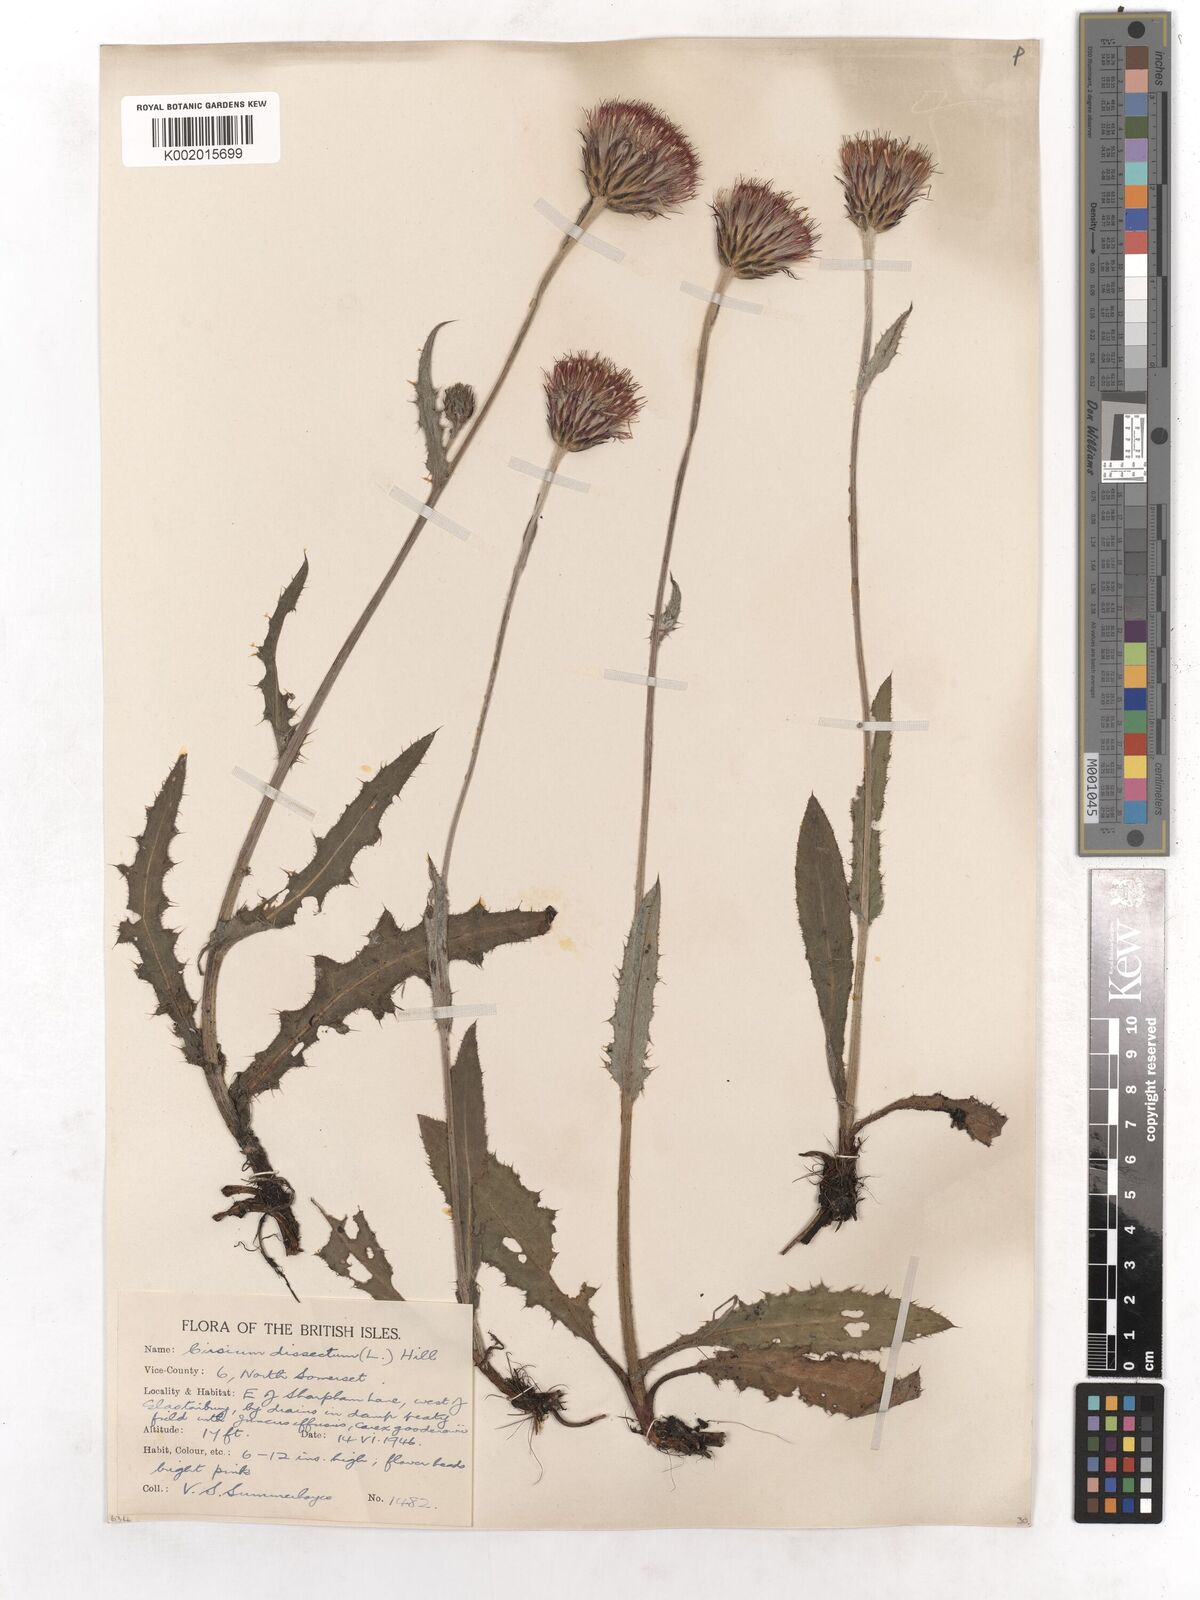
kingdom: Plantae
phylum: Tracheophyta
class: Magnoliopsida
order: Asterales
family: Asteraceae
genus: Cirsium
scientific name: Cirsium dissectum
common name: Meadow thistle
